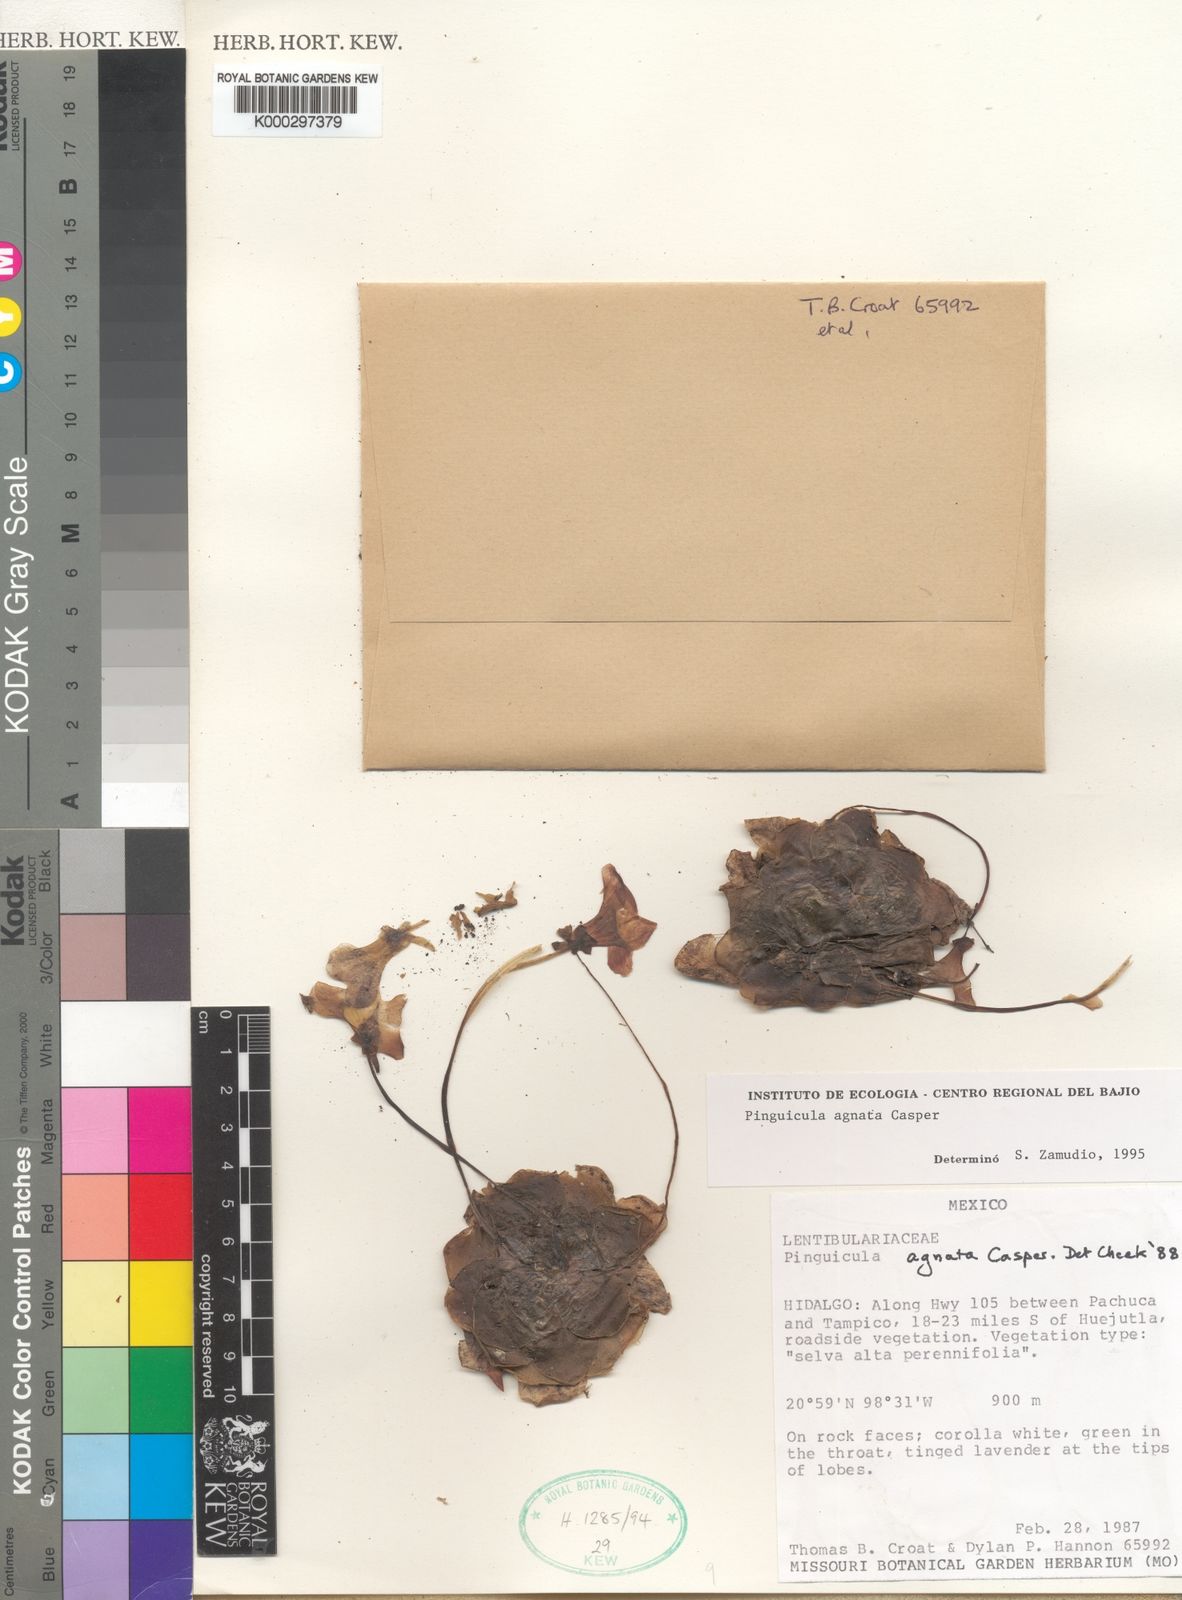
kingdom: Plantae
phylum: Tracheophyta
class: Magnoliopsida
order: Lamiales
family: Lentibulariaceae
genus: Pinguicula
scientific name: Pinguicula agnata
